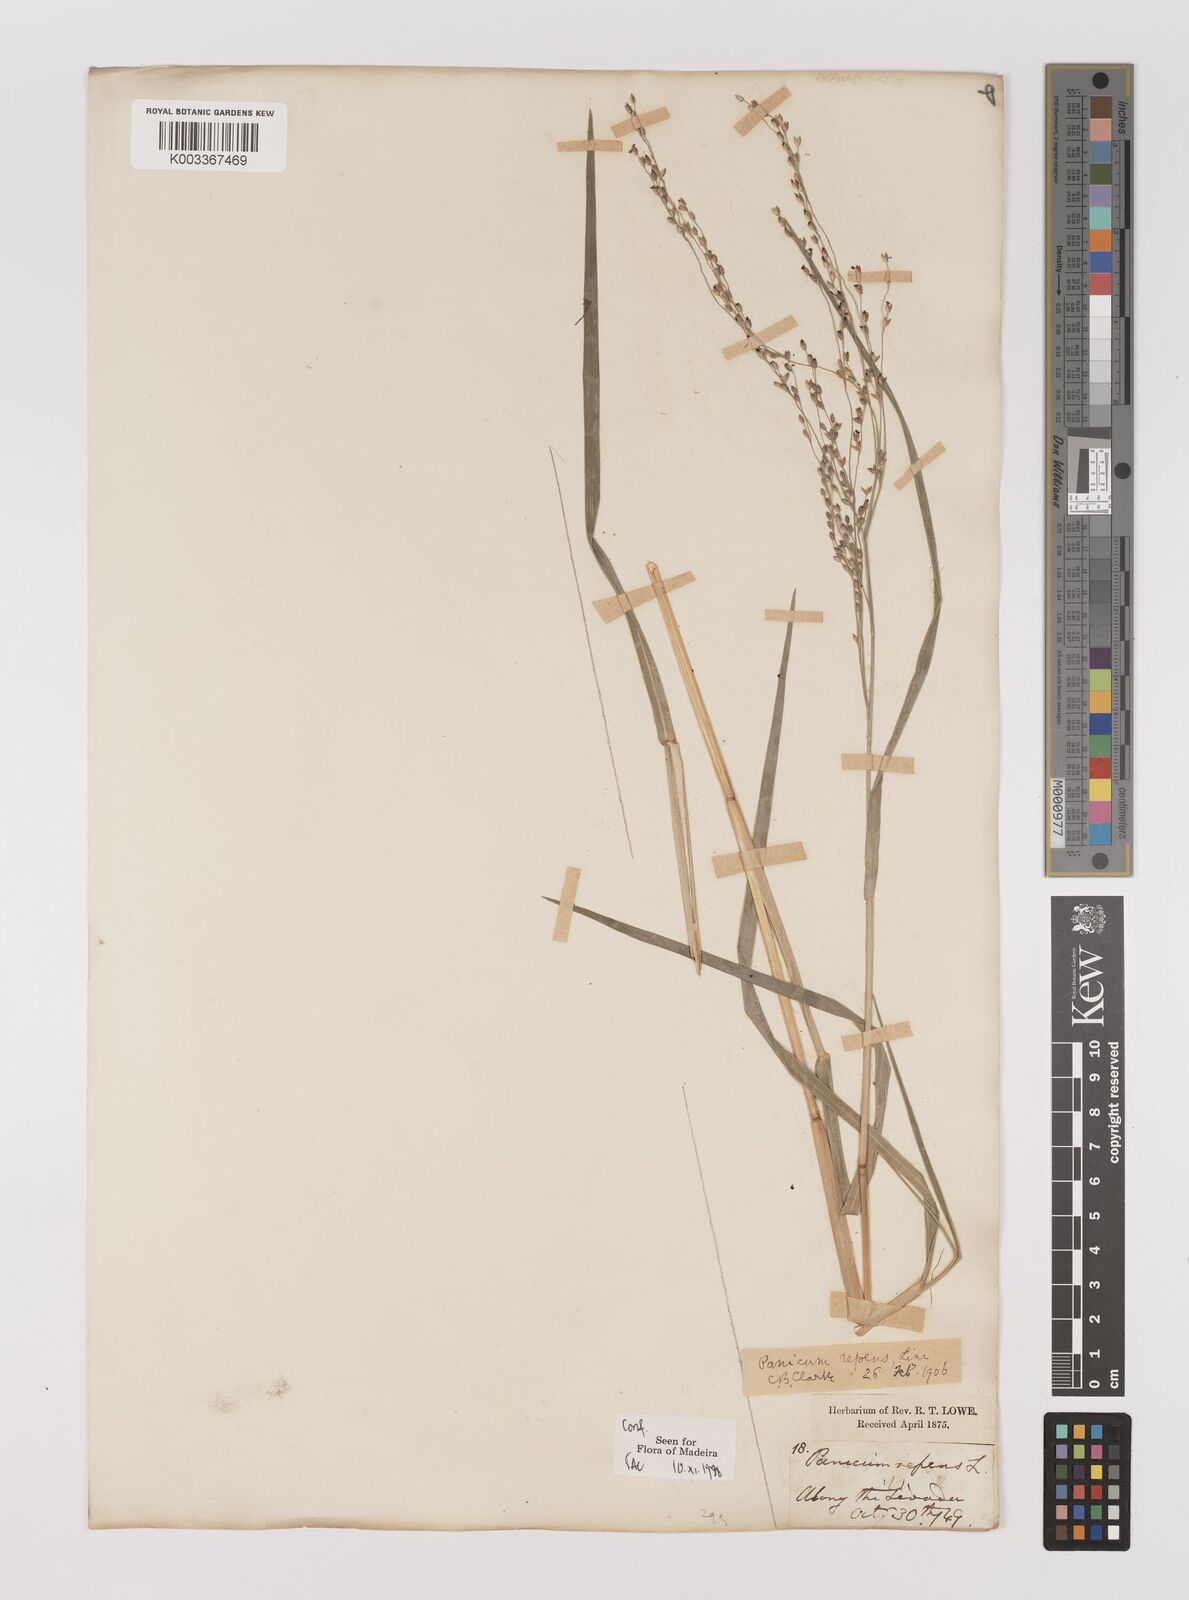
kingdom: Plantae
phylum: Tracheophyta
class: Liliopsida
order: Poales
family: Poaceae
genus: Panicum
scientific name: Panicum repens
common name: Torpedo grass
